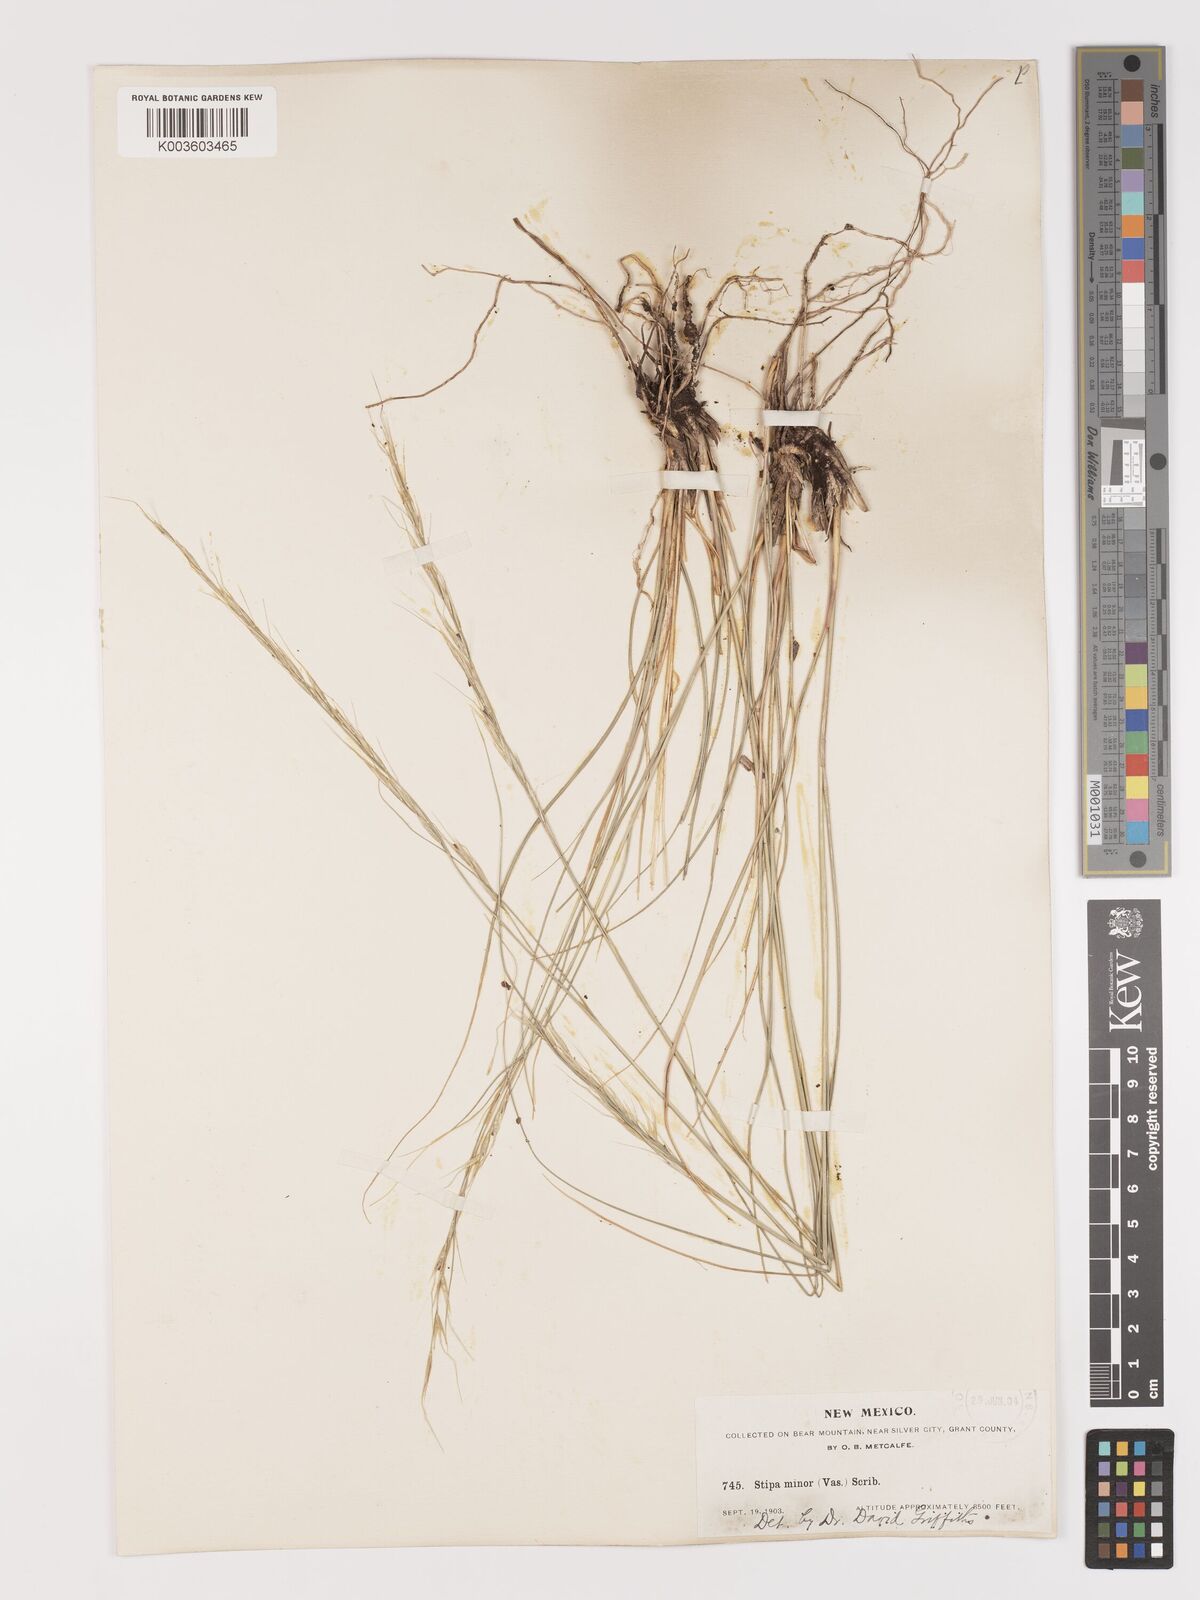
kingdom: Plantae
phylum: Tracheophyta
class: Liliopsida
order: Poales
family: Poaceae
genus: Eriocoma
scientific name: Eriocoma nelsonii
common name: Nelson's needlegrass
